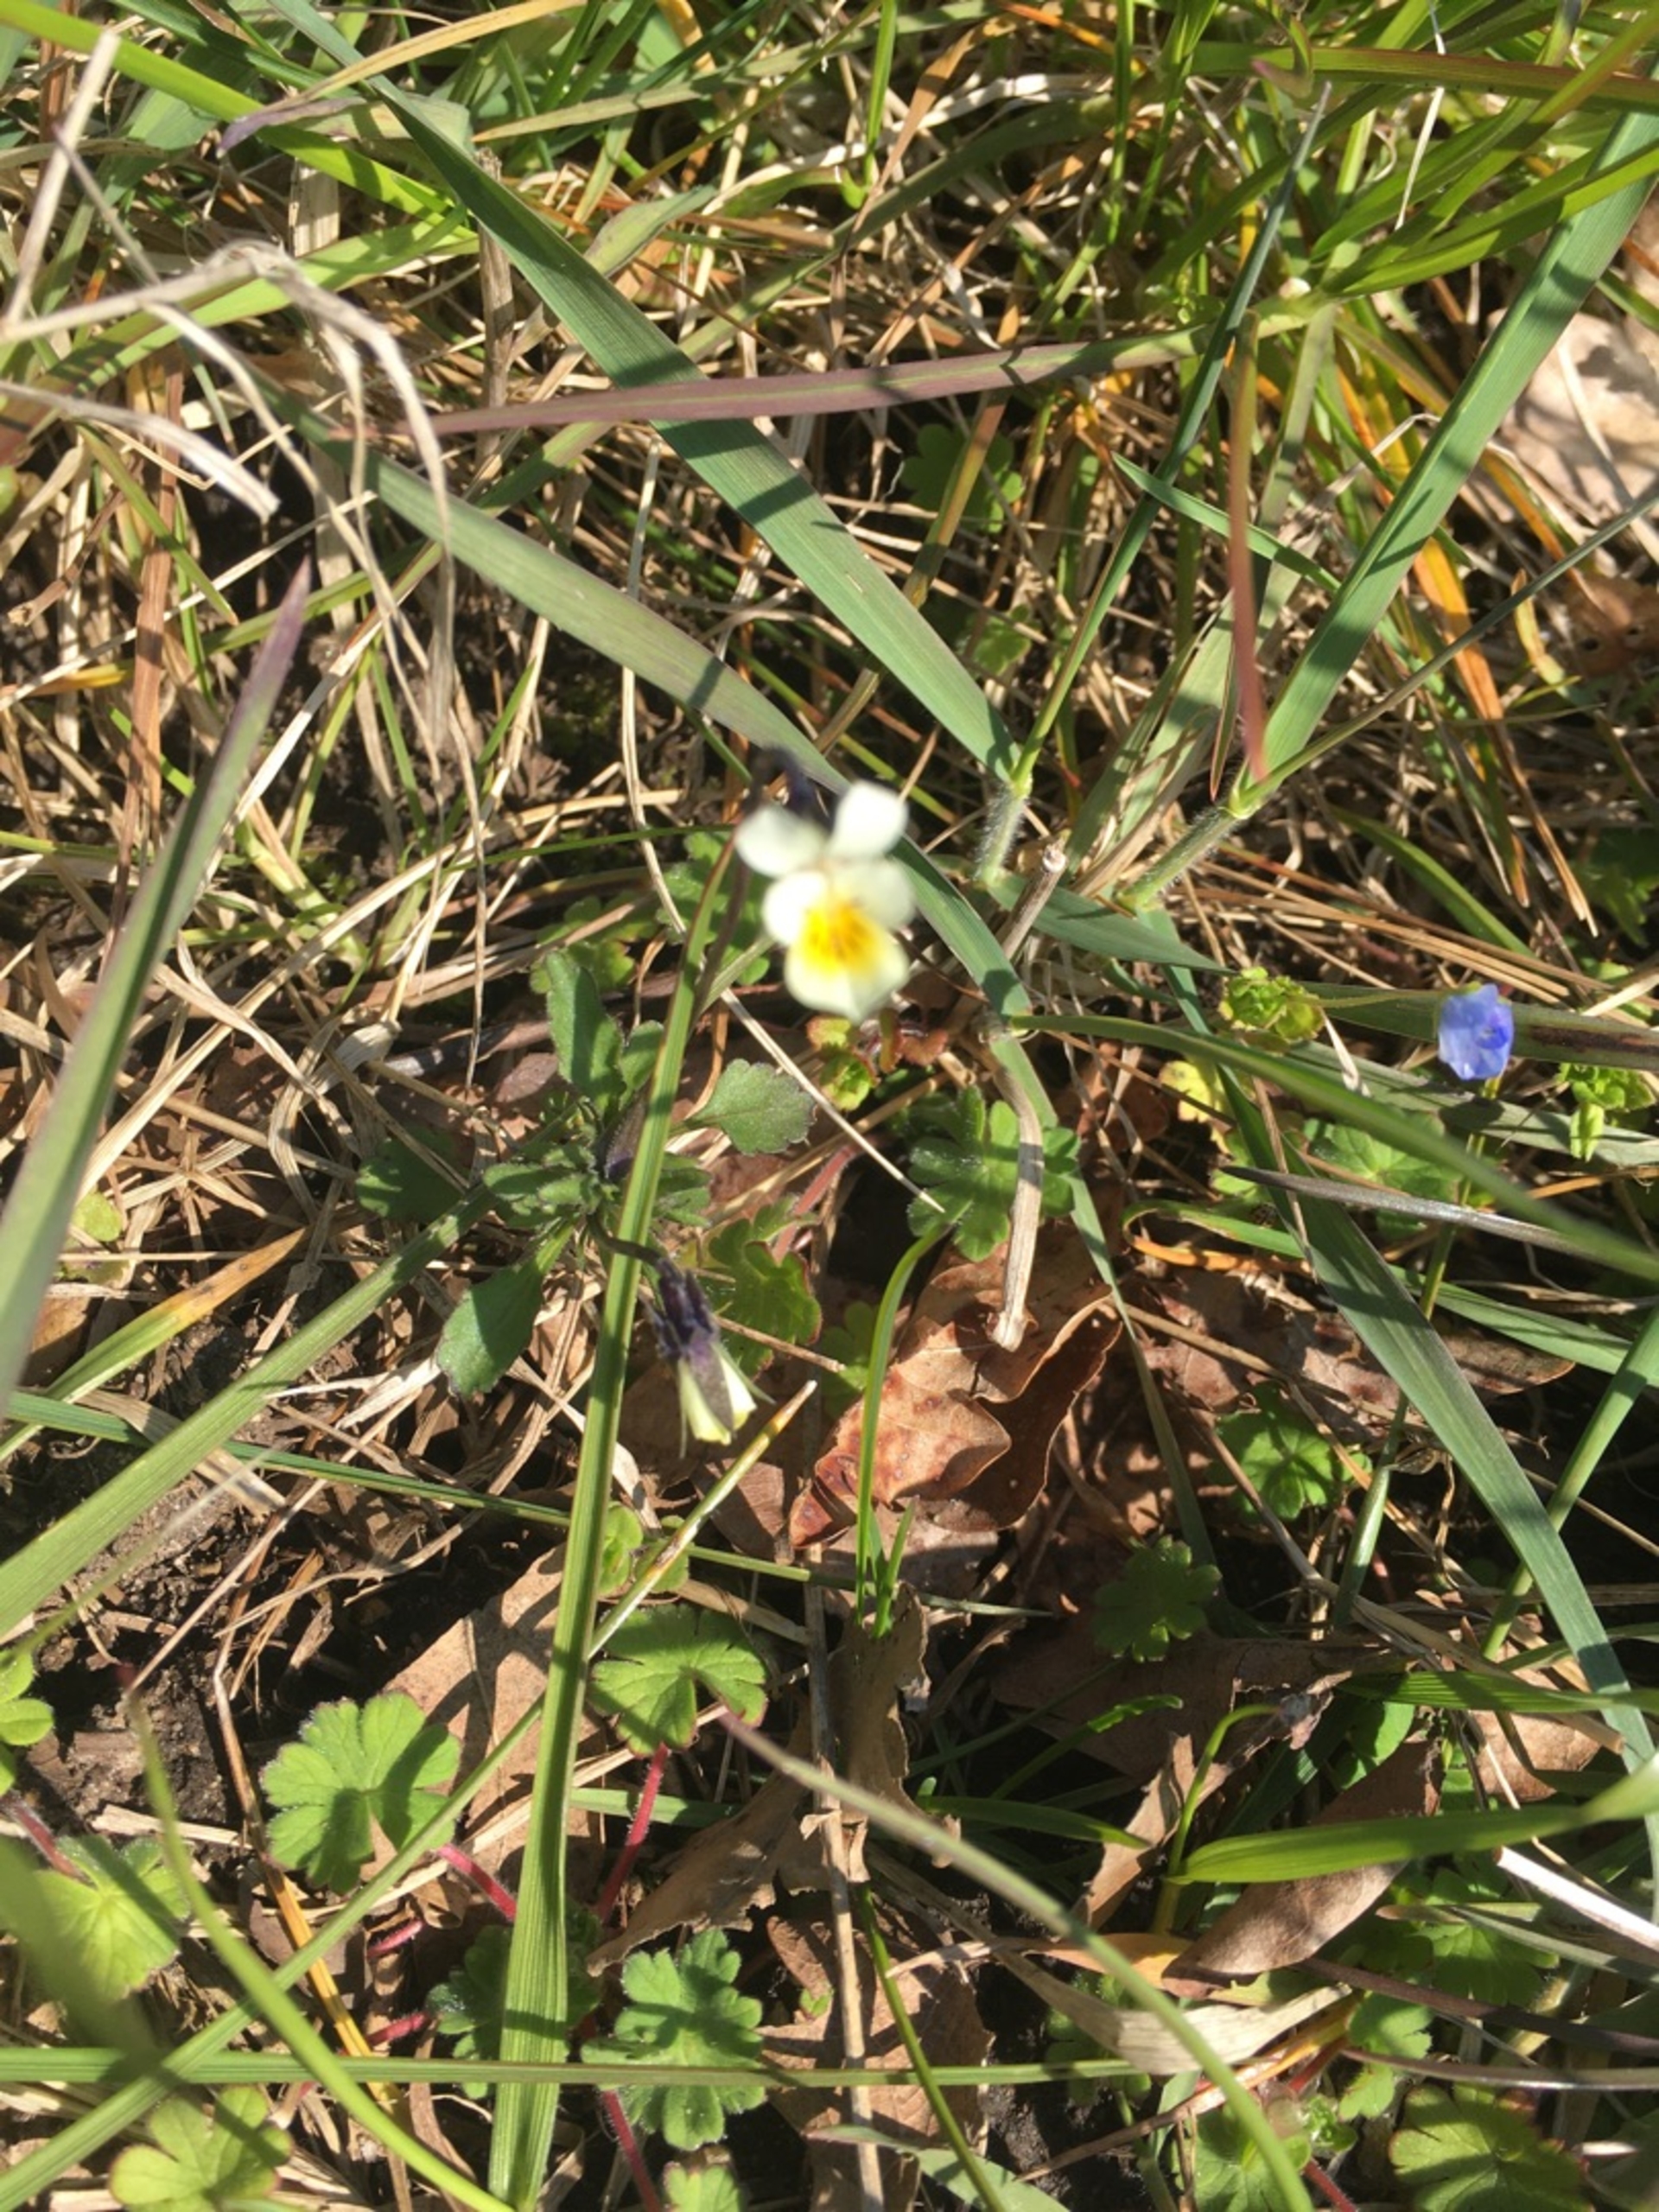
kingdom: Plantae
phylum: Tracheophyta
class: Magnoliopsida
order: Malpighiales
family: Violaceae
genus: Viola
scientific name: Viola arvensis
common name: Ager-stedmoderblomst
